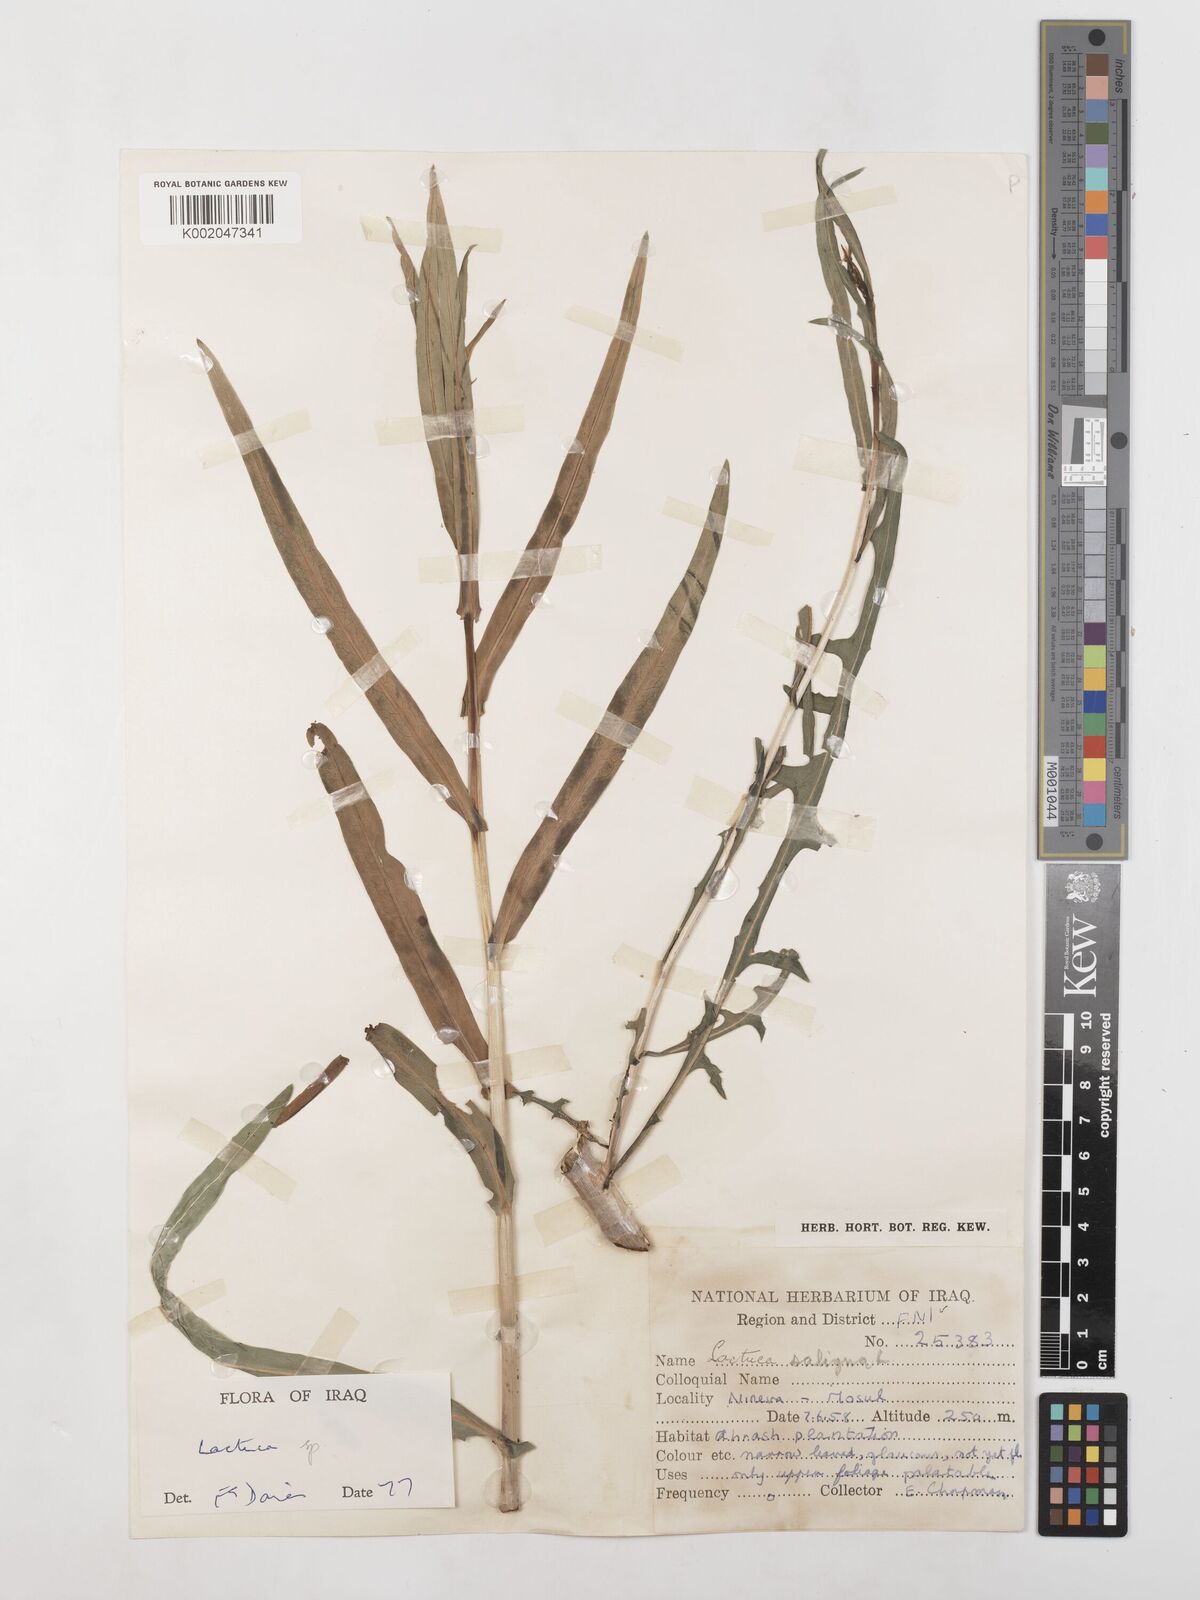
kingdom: Plantae
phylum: Tracheophyta
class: Magnoliopsida
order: Asterales
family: Asteraceae
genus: Lactuca
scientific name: Lactuca saligna
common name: Wild lettuce
